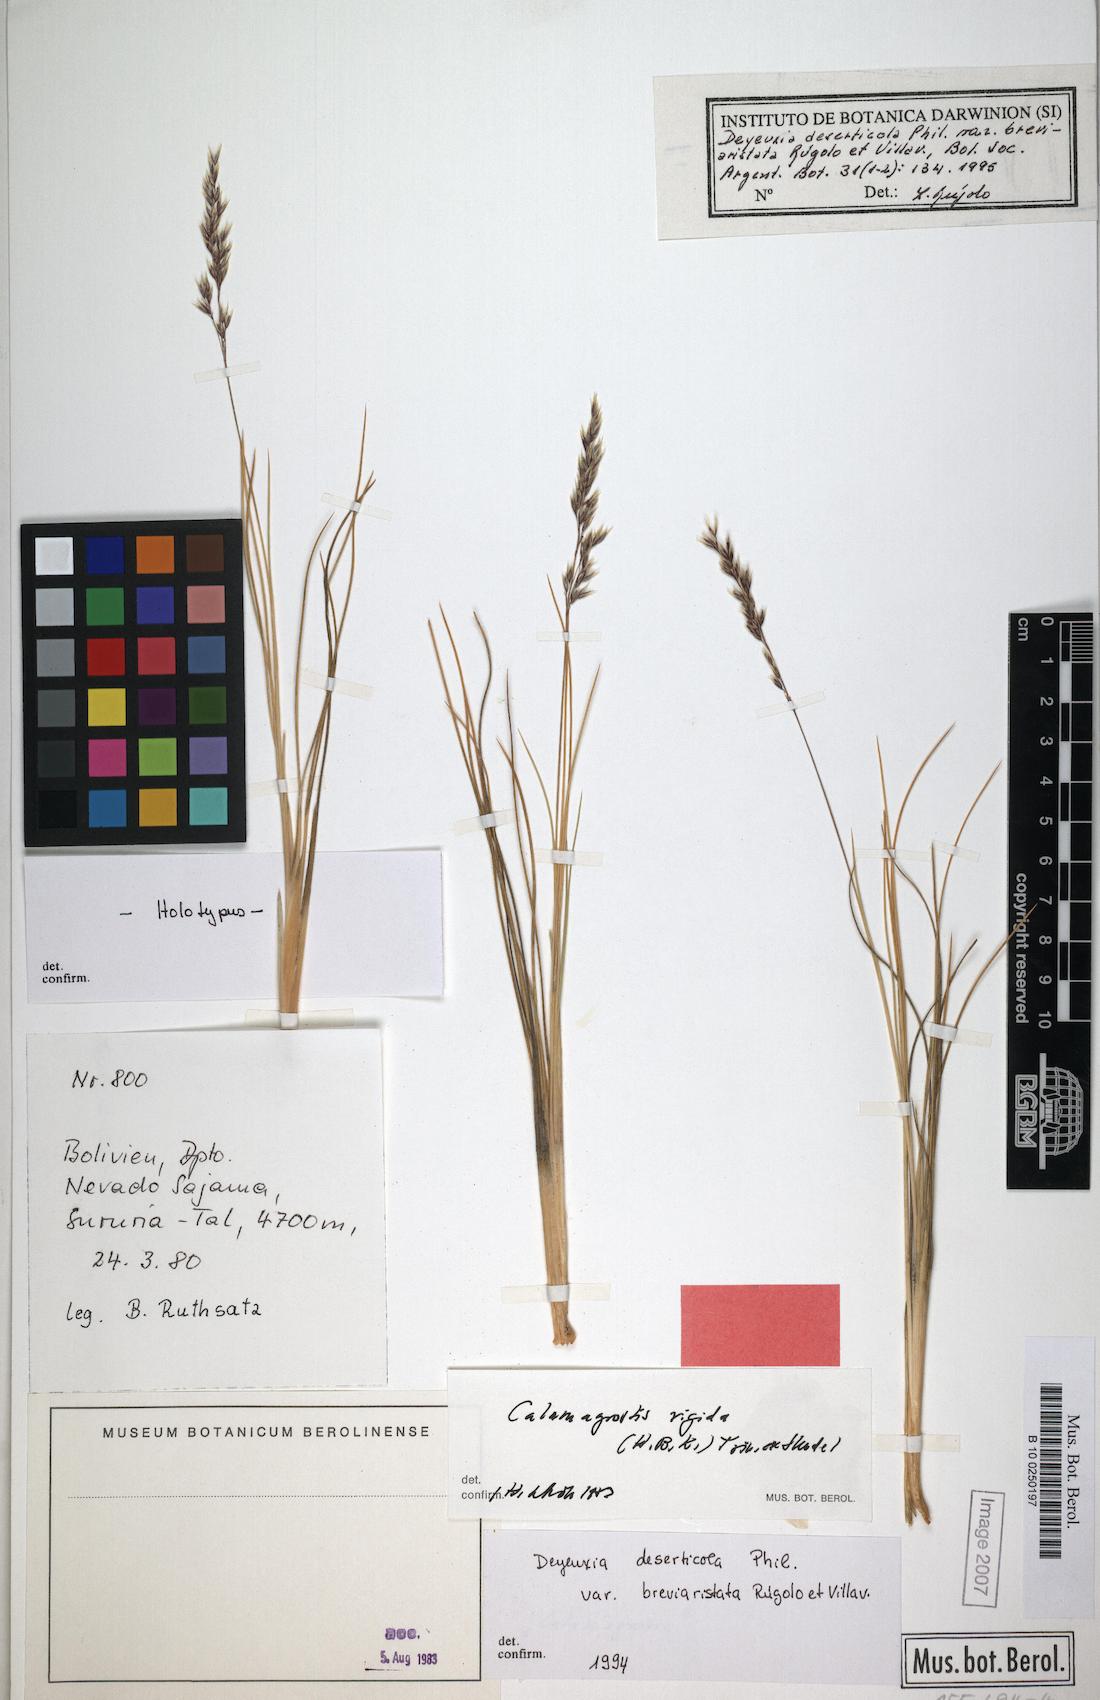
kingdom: Plantae
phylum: Tracheophyta
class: Liliopsida
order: Poales
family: Poaceae
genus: Cinnagrostis
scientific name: Cinnagrostis deserticola
